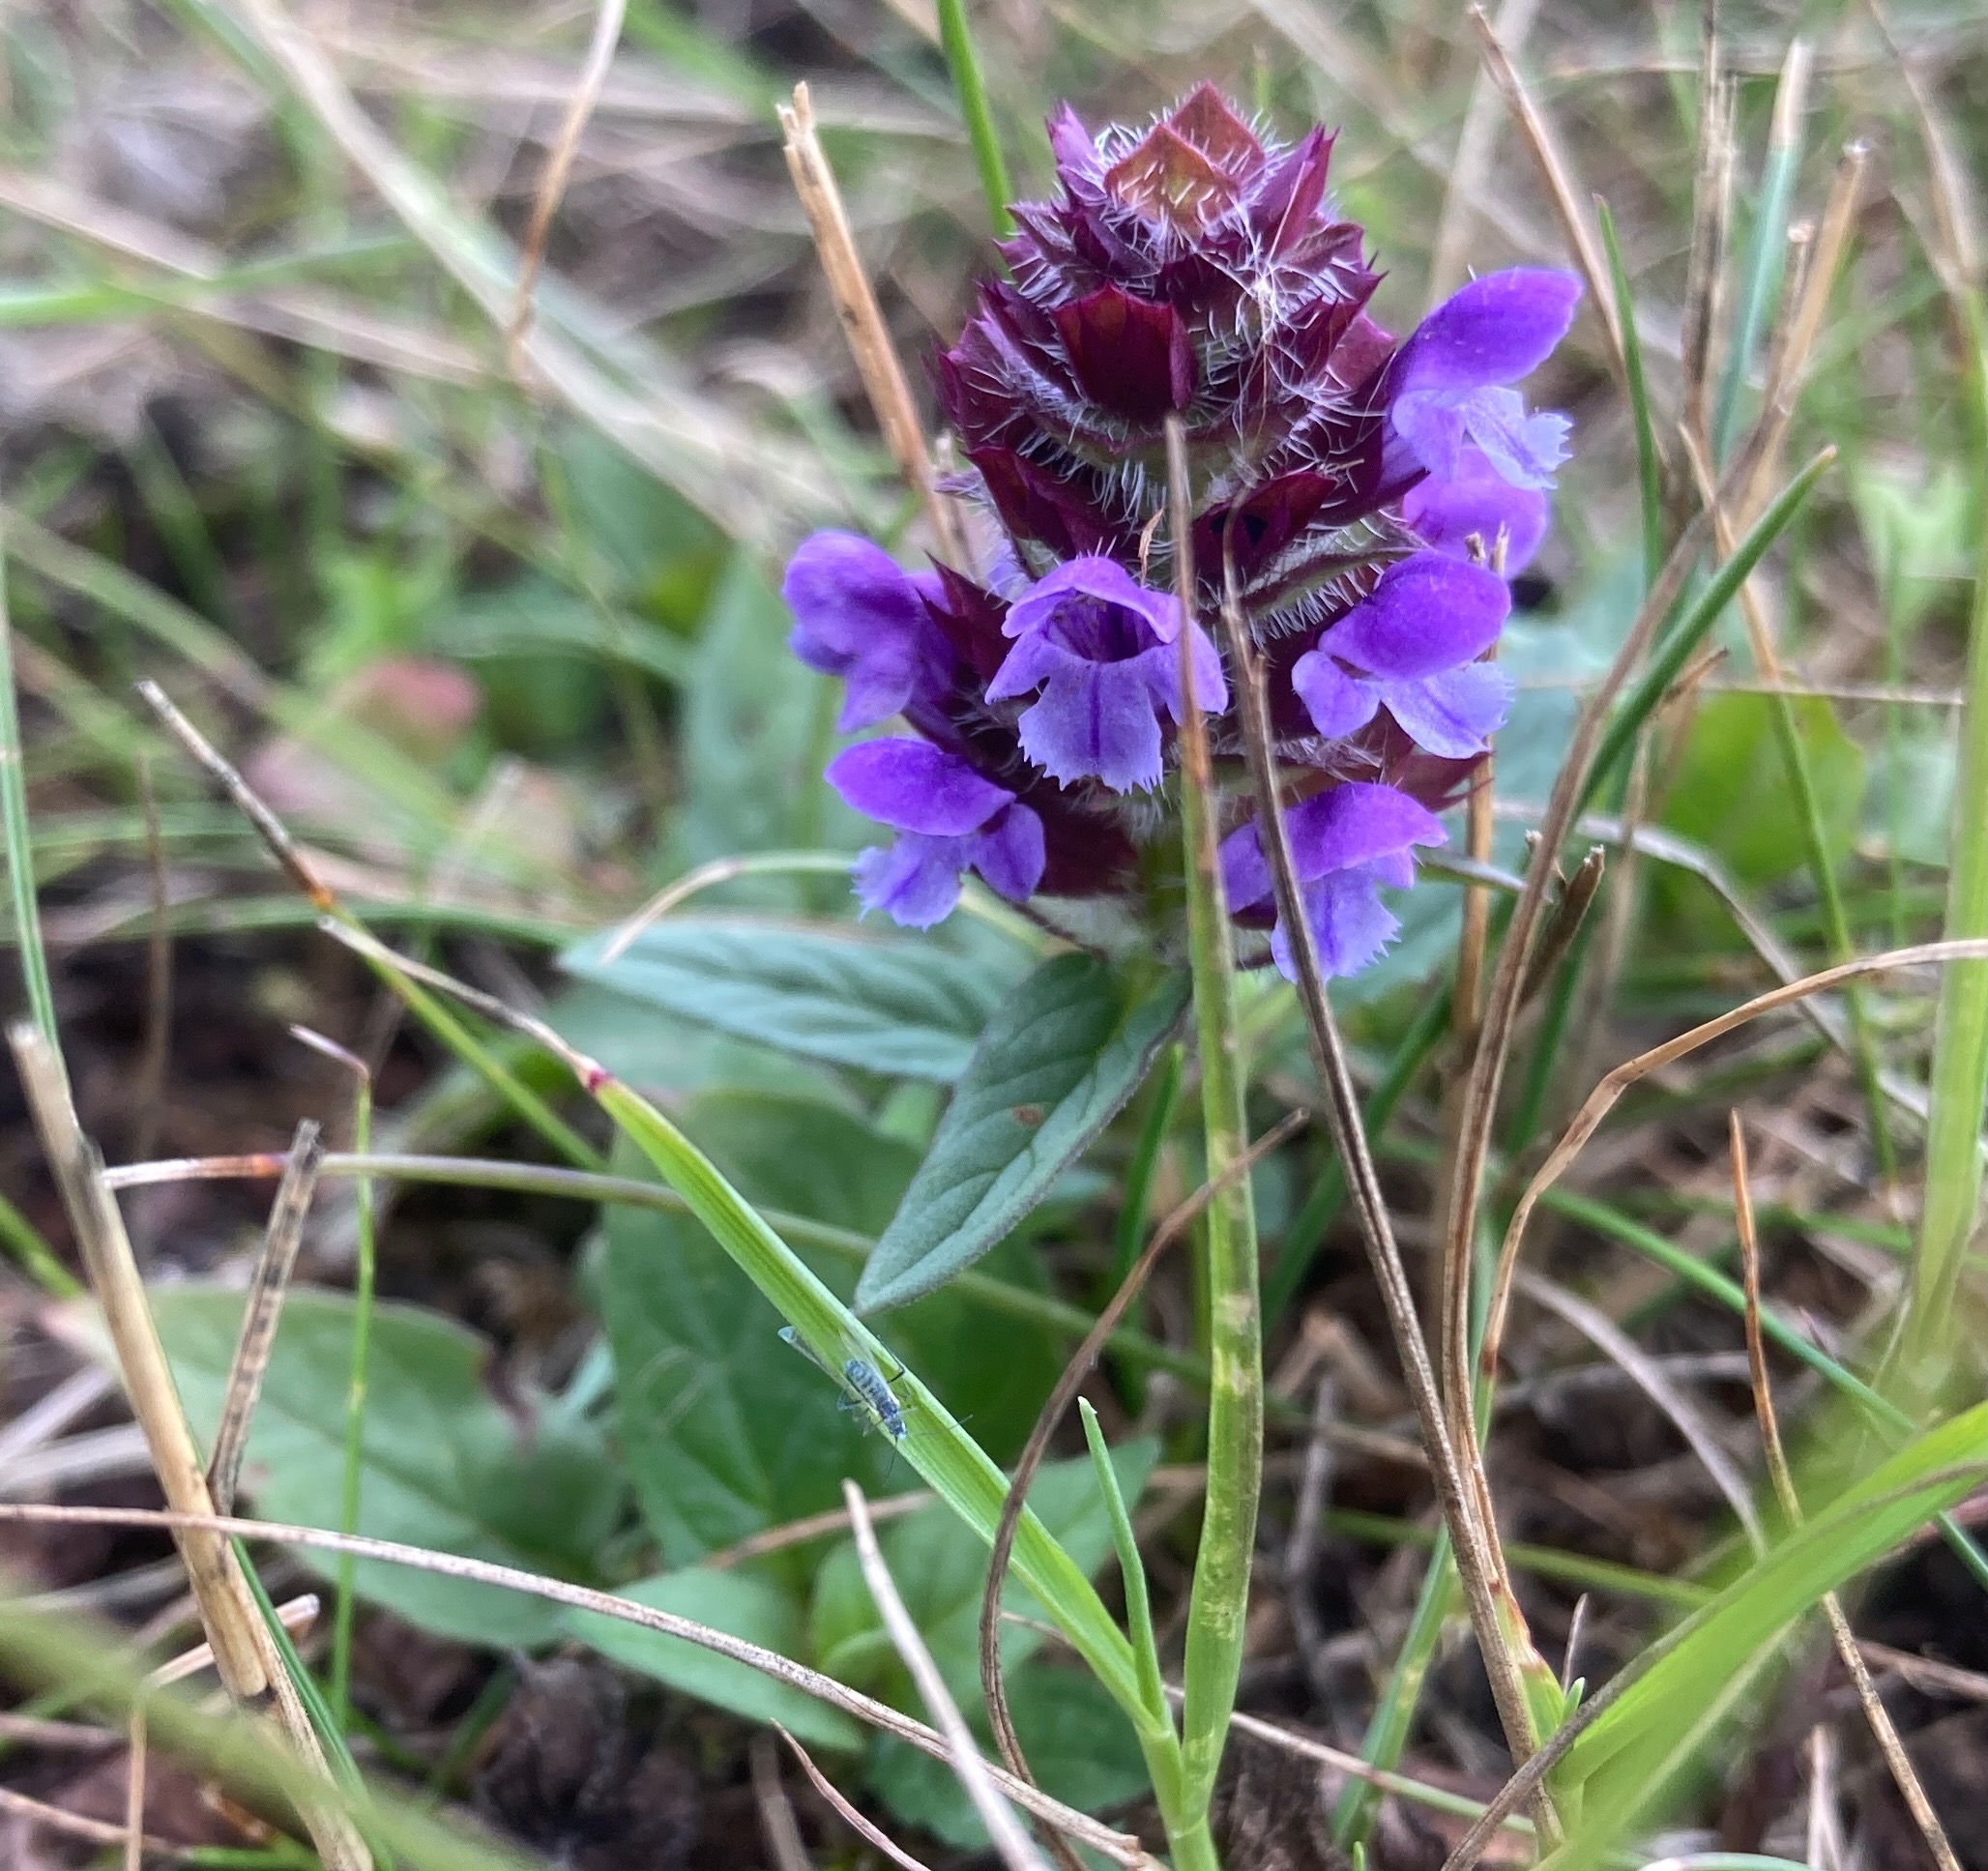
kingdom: Plantae
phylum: Tracheophyta
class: Magnoliopsida
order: Lamiales
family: Lamiaceae
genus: Prunella
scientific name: Prunella vulgaris
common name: Almindelig brunelle
